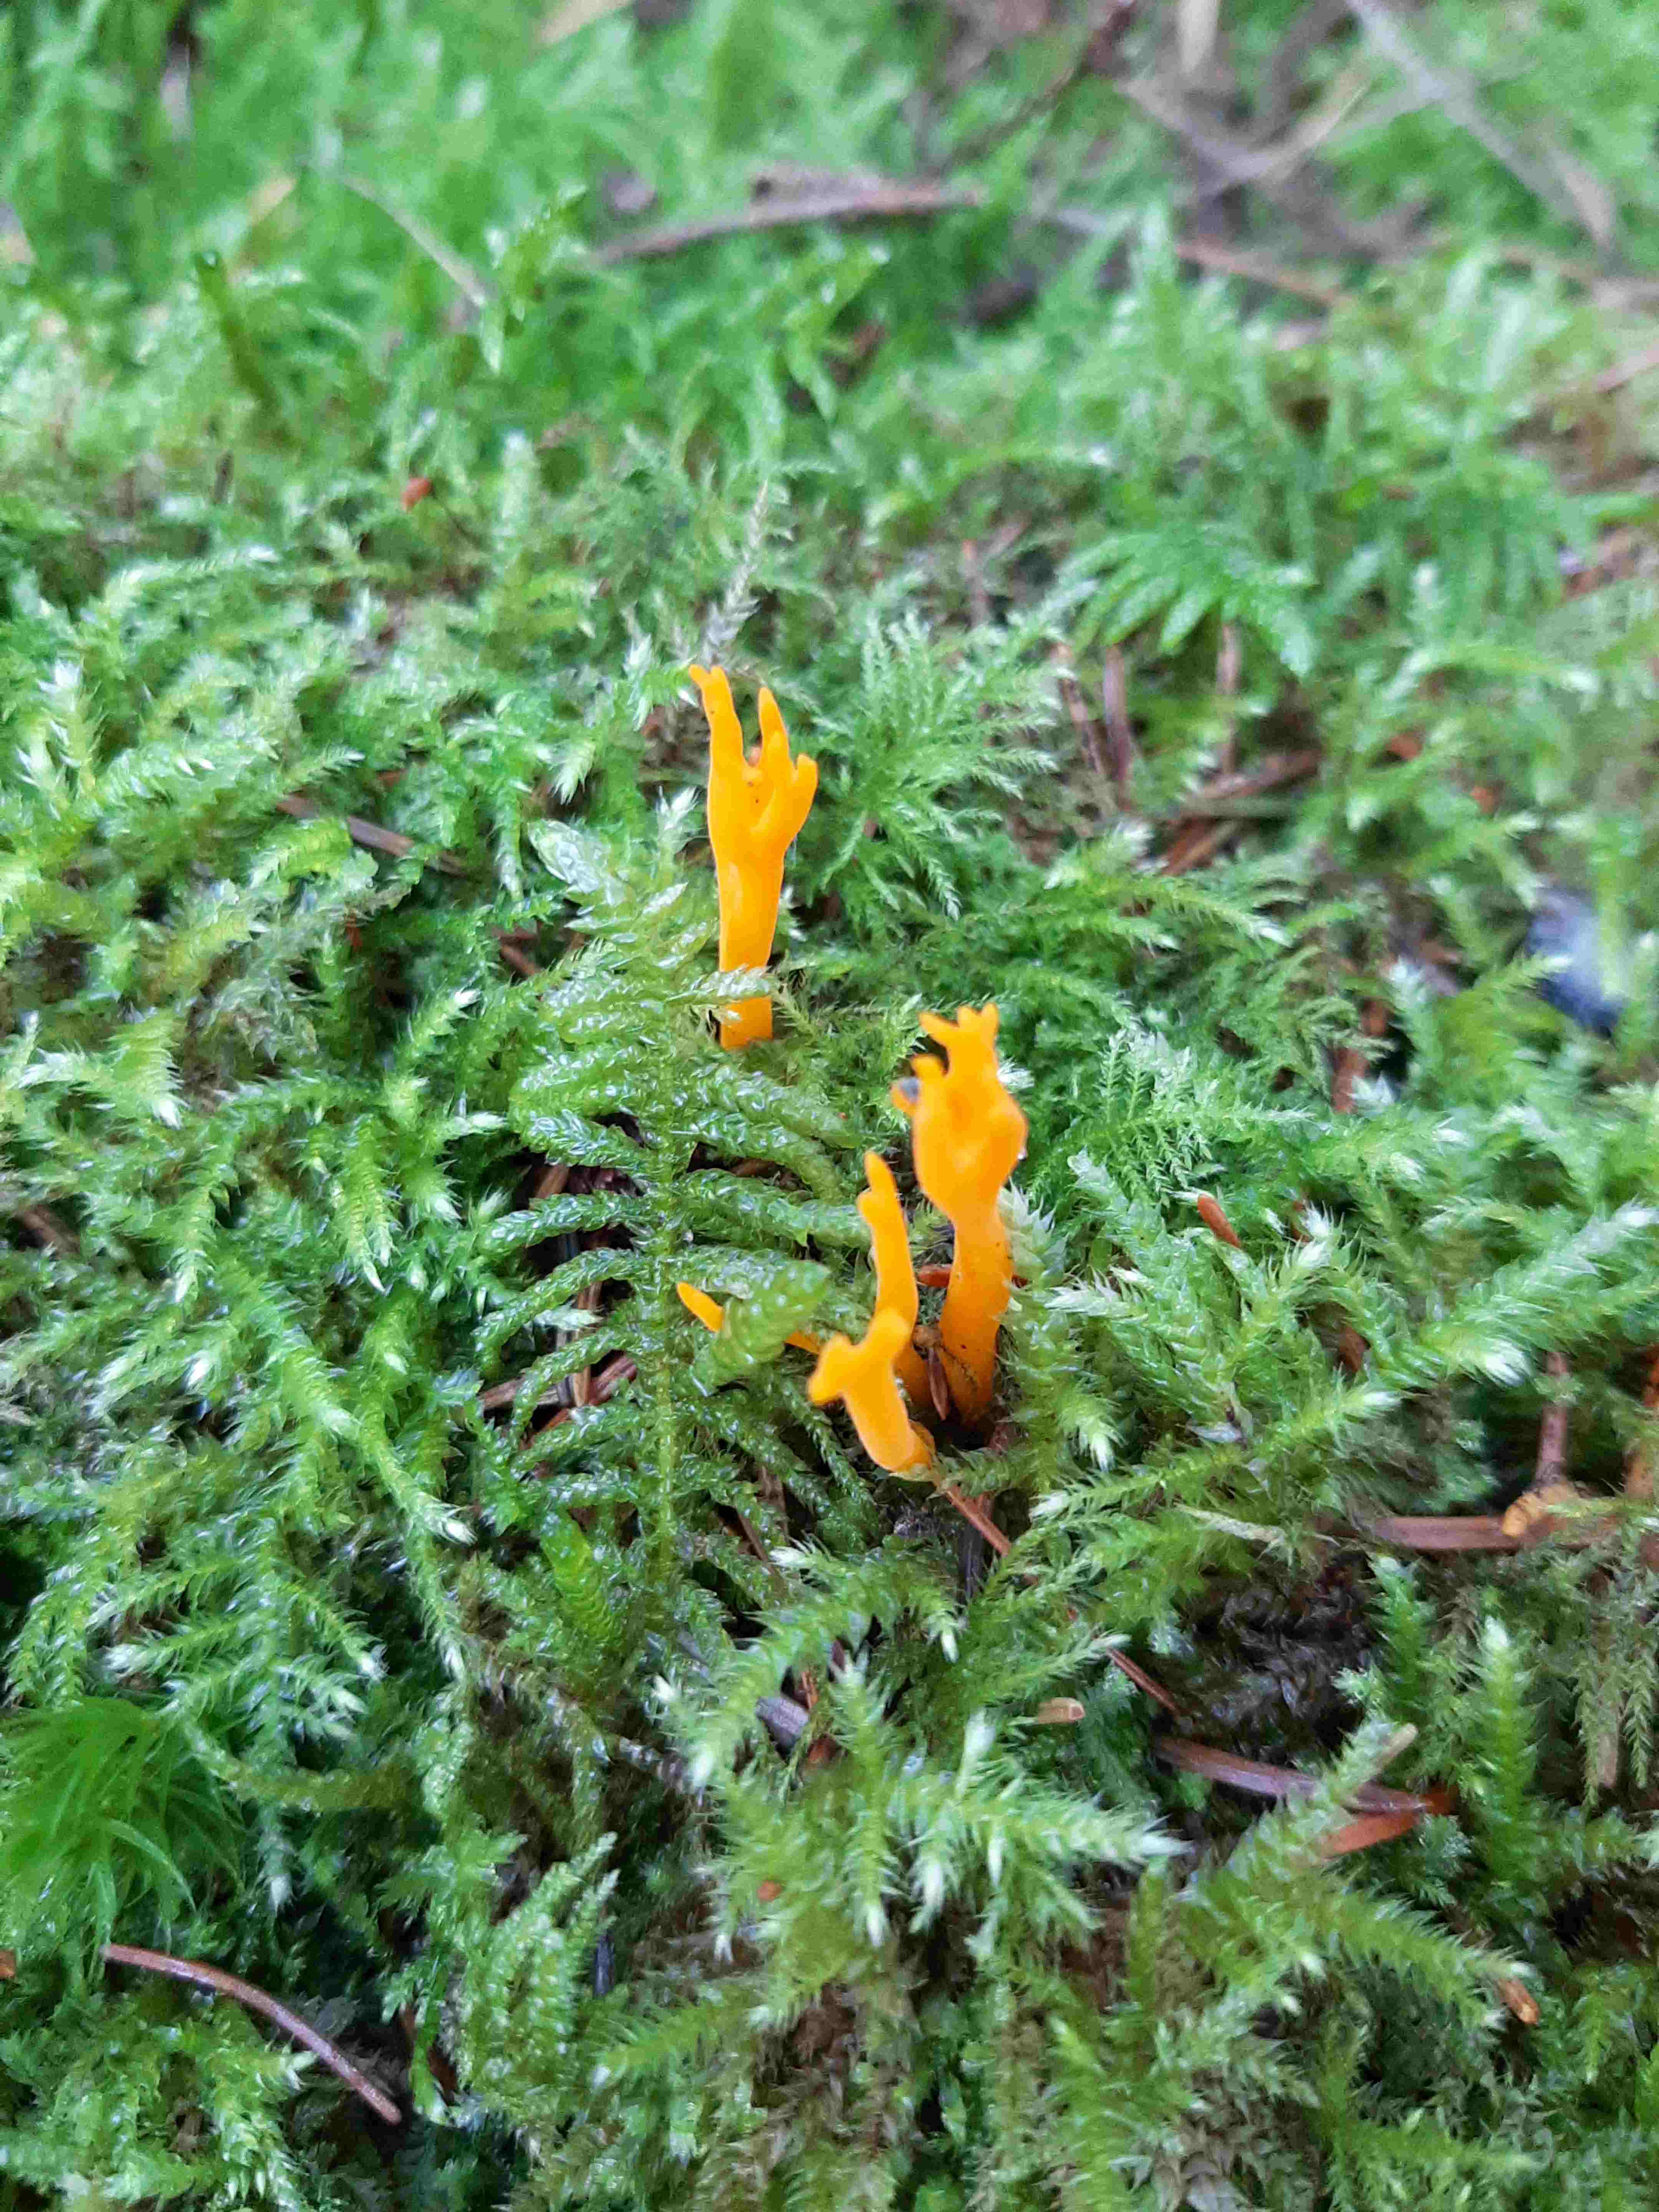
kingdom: Fungi
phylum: Basidiomycota
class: Dacrymycetes
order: Dacrymycetales
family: Dacrymycetaceae
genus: Calocera
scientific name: Calocera viscosa
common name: almindelig guldgaffel
